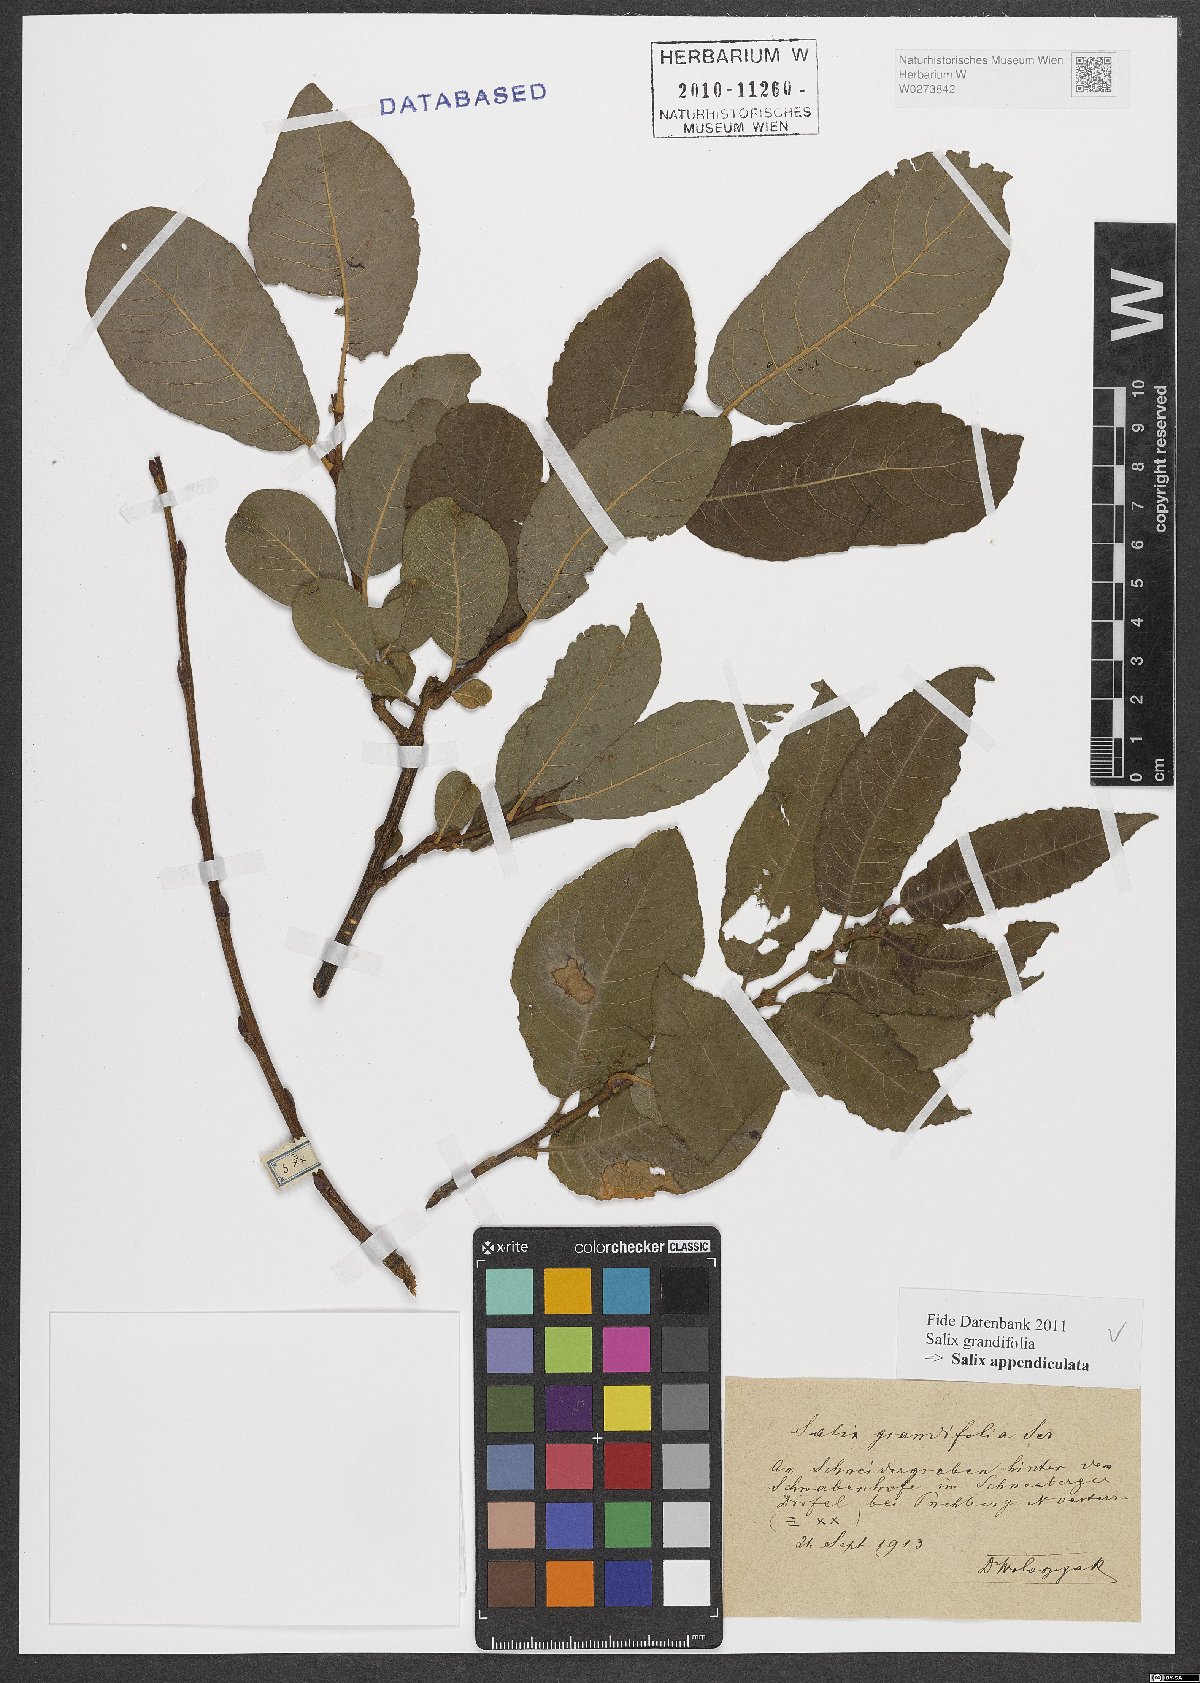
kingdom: Plantae
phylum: Tracheophyta
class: Magnoliopsida
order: Malpighiales
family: Salicaceae
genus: Salix
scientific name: Salix appendiculata
